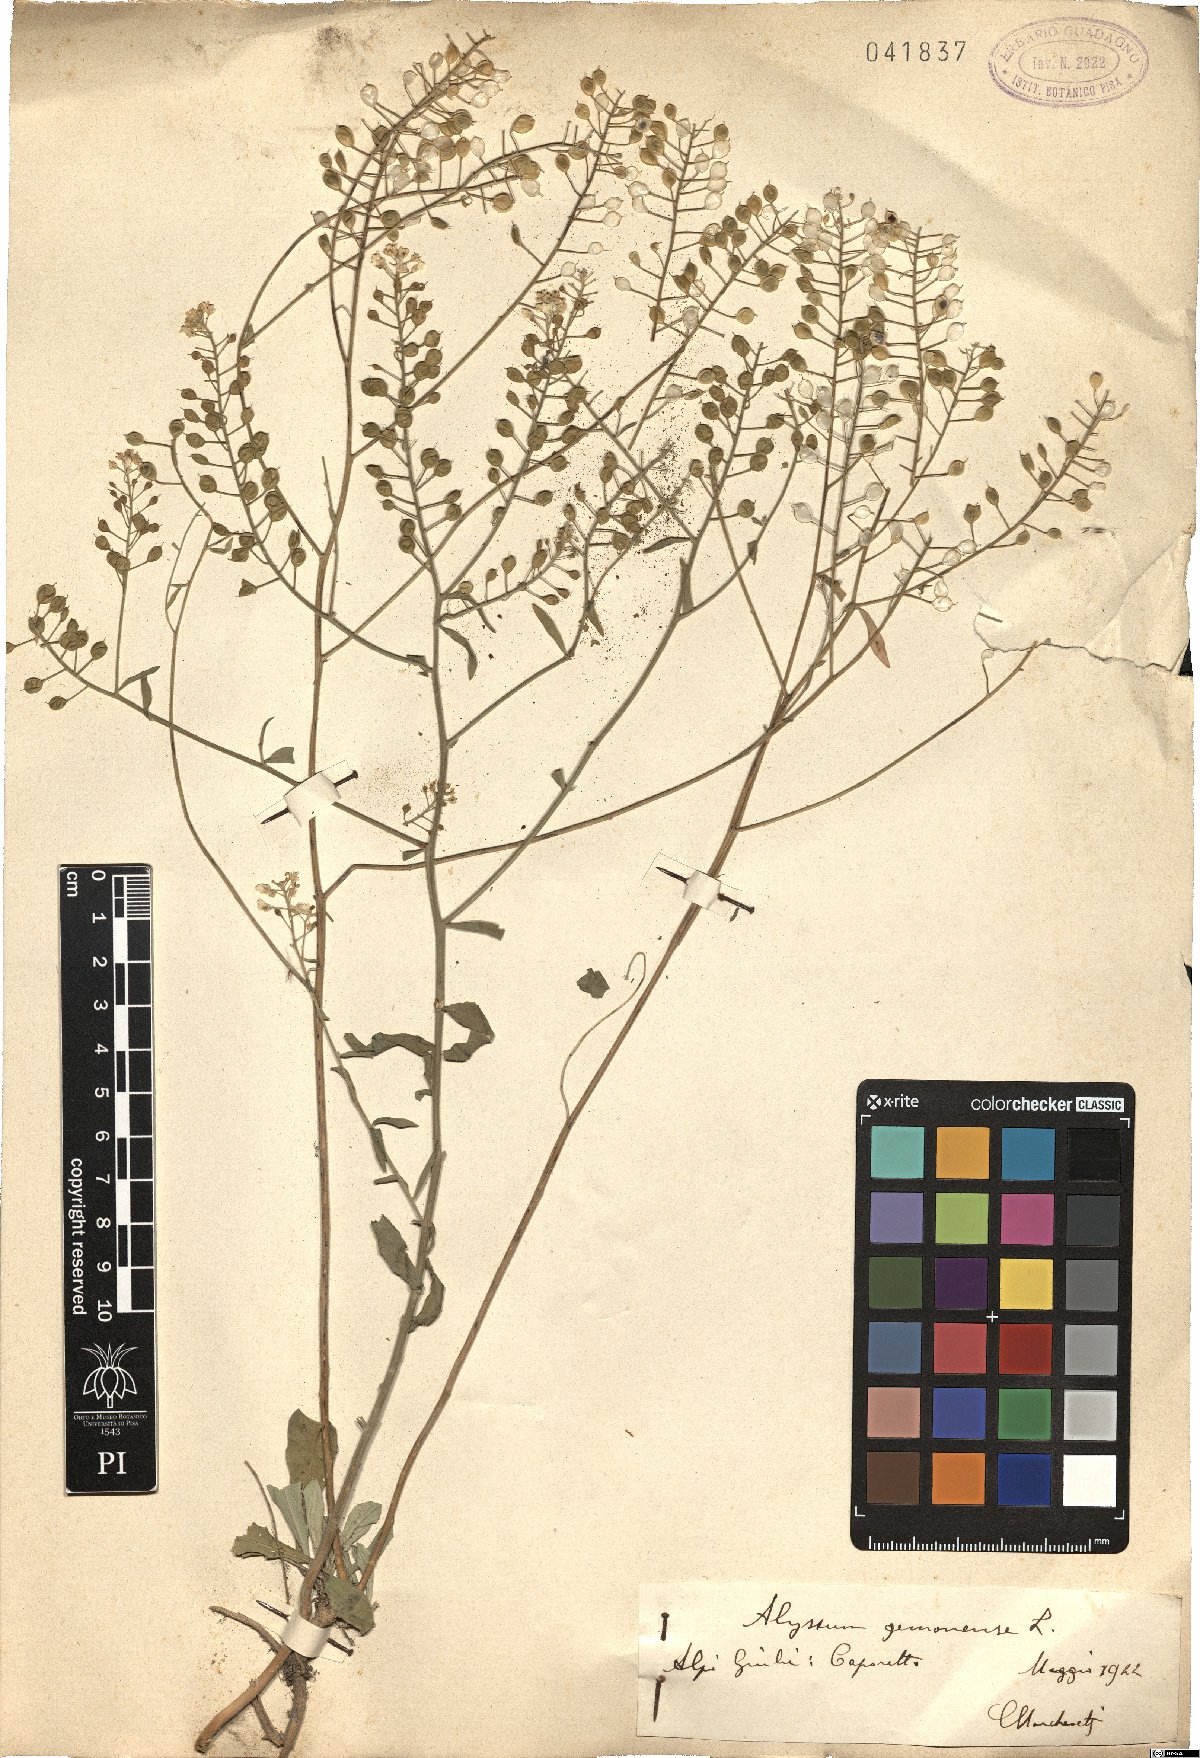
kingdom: Plantae
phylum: Tracheophyta
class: Magnoliopsida
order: Brassicales
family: Brassicaceae
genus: Aurinia
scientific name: Aurinia petraea
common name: Goldentuft
